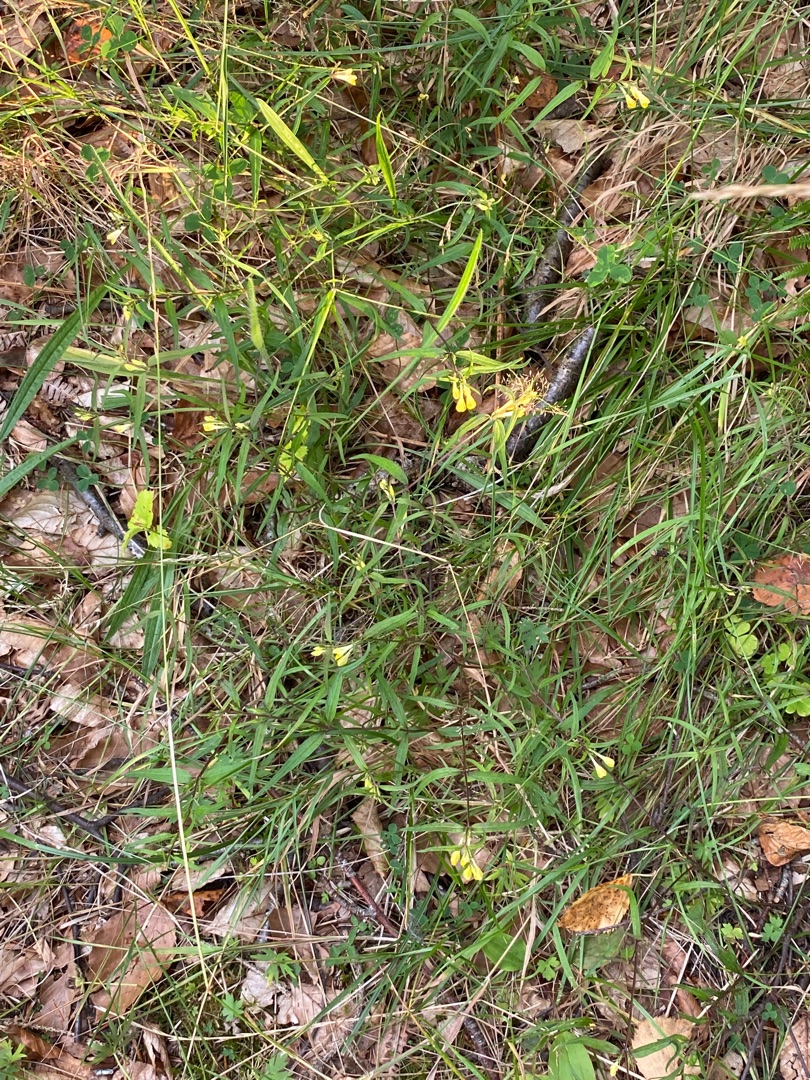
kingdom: Plantae
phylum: Tracheophyta
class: Magnoliopsida
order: Lamiales
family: Orobanchaceae
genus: Melampyrum
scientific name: Melampyrum pratense
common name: Almindelig kohvede
